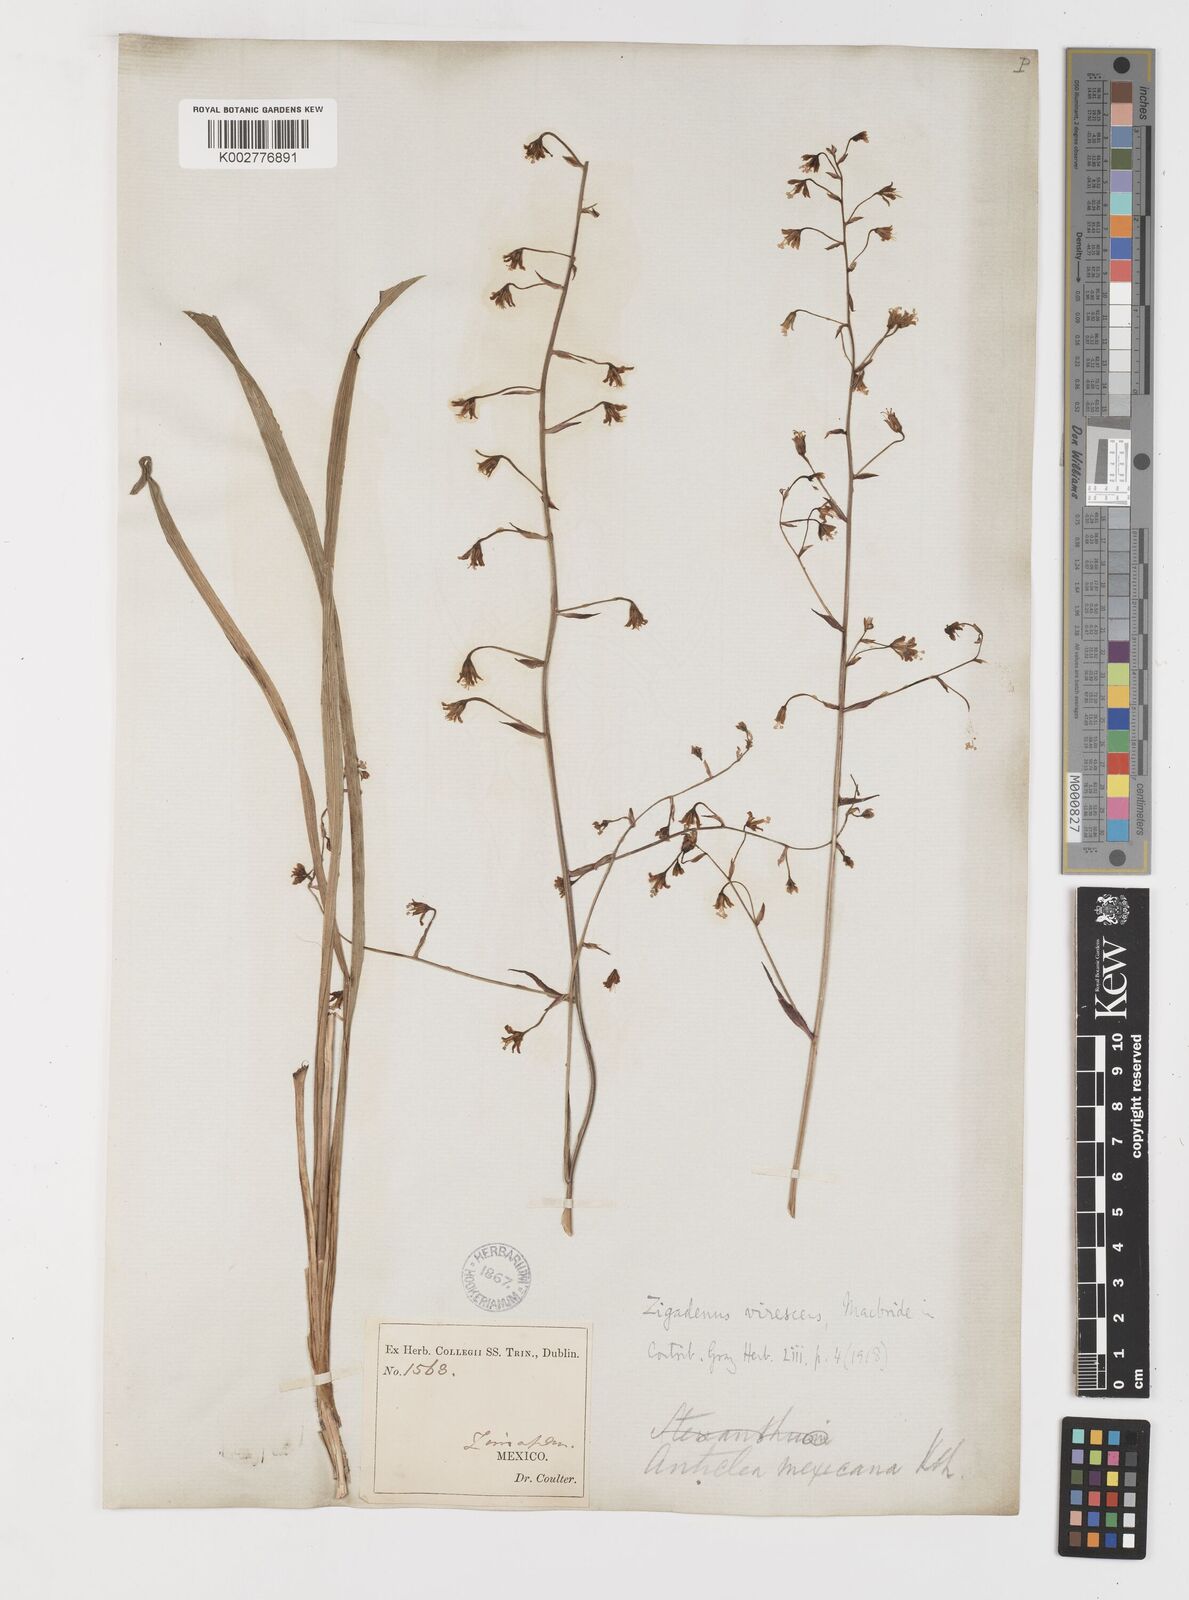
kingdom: Plantae
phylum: Tracheophyta
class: Liliopsida
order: Liliales
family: Melanthiaceae
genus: Anticlea
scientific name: Anticlea virescens
